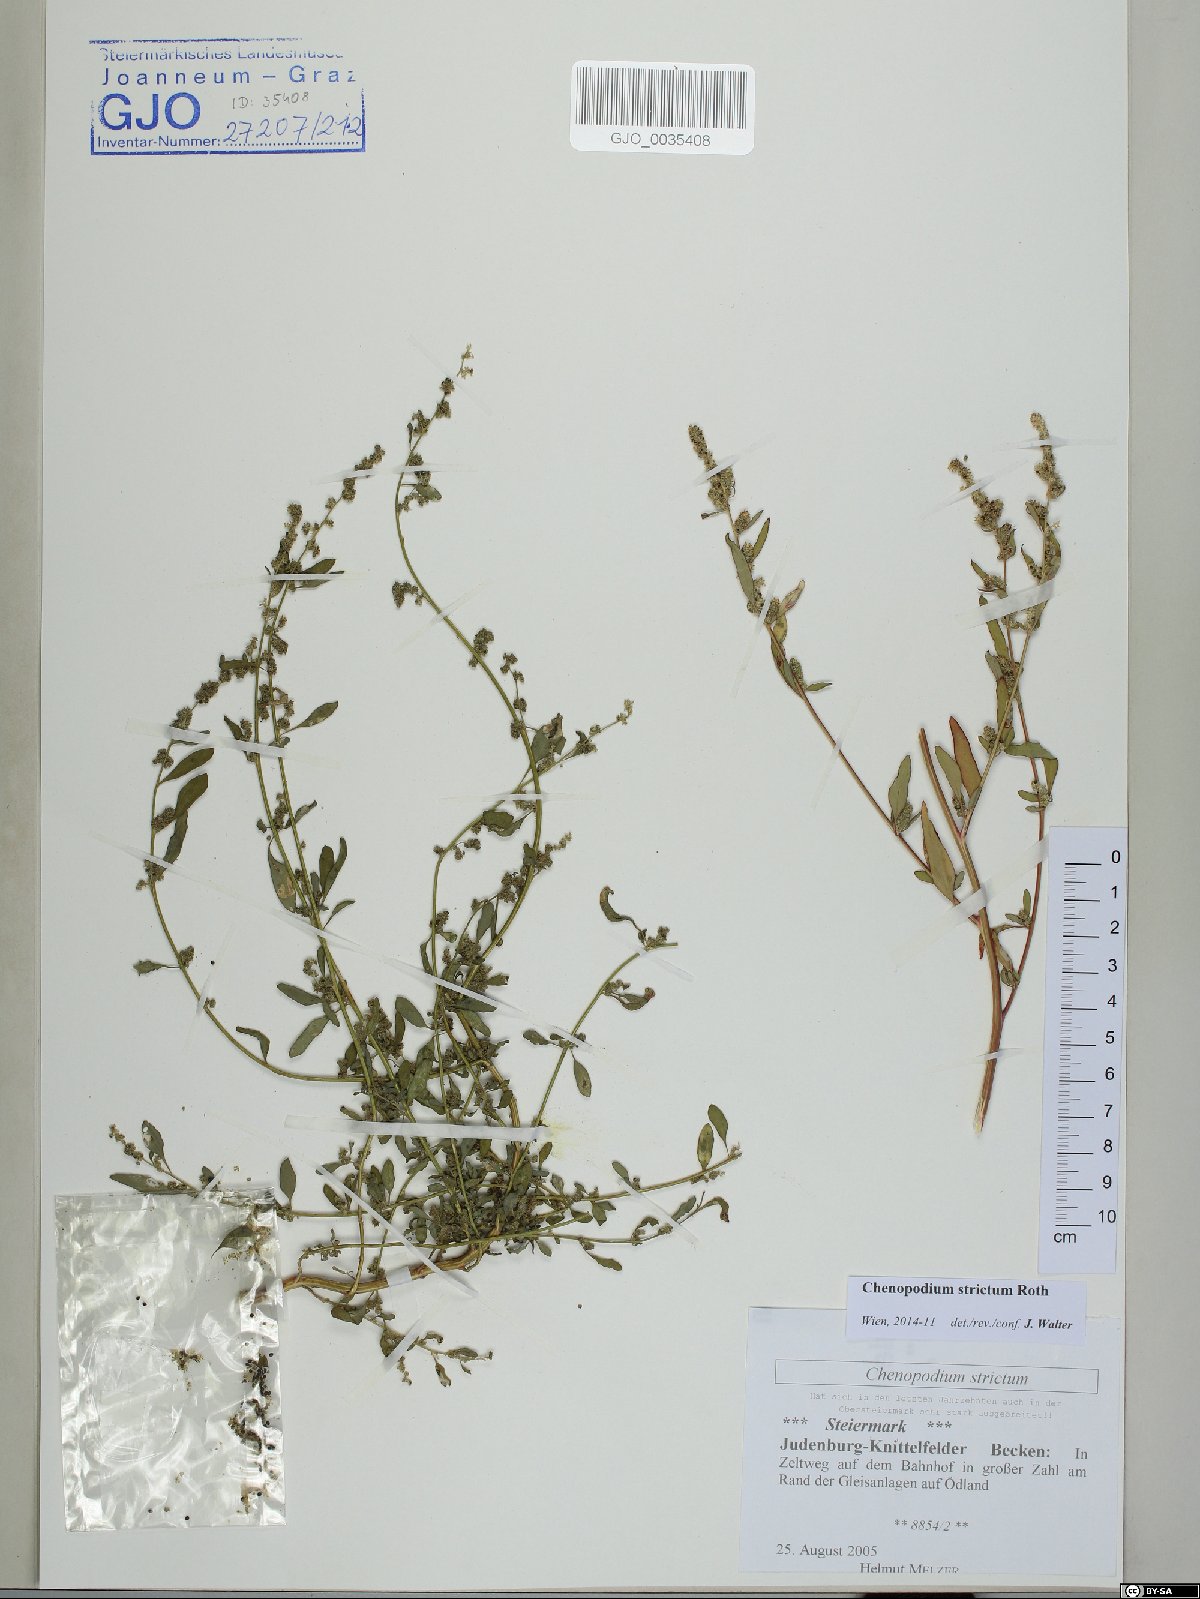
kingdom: Plantae
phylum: Tracheophyta
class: Magnoliopsida
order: Caryophyllales
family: Amaranthaceae
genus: Chenopodium
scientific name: Chenopodium album
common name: Fat-hen
